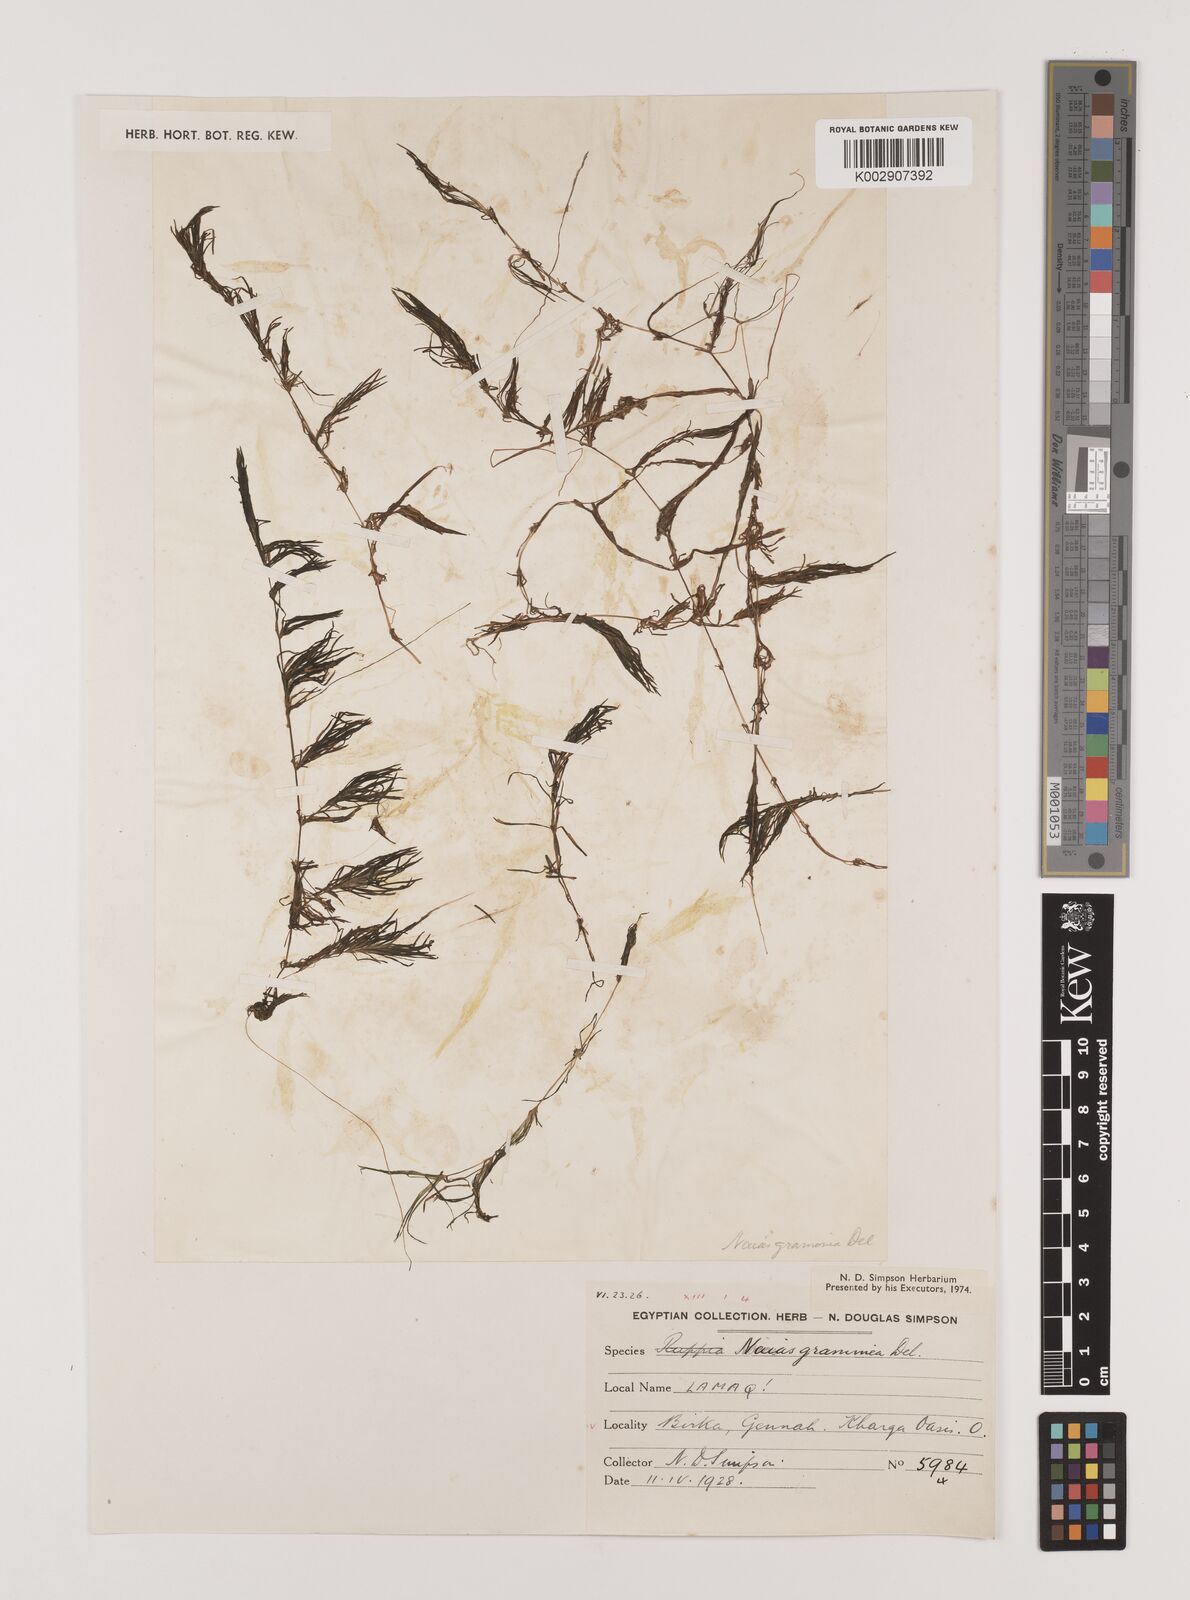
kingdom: Plantae
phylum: Tracheophyta
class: Liliopsida
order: Alismatales
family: Hydrocharitaceae
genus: Najas
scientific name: Najas graminea
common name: Ricefield waternymph
